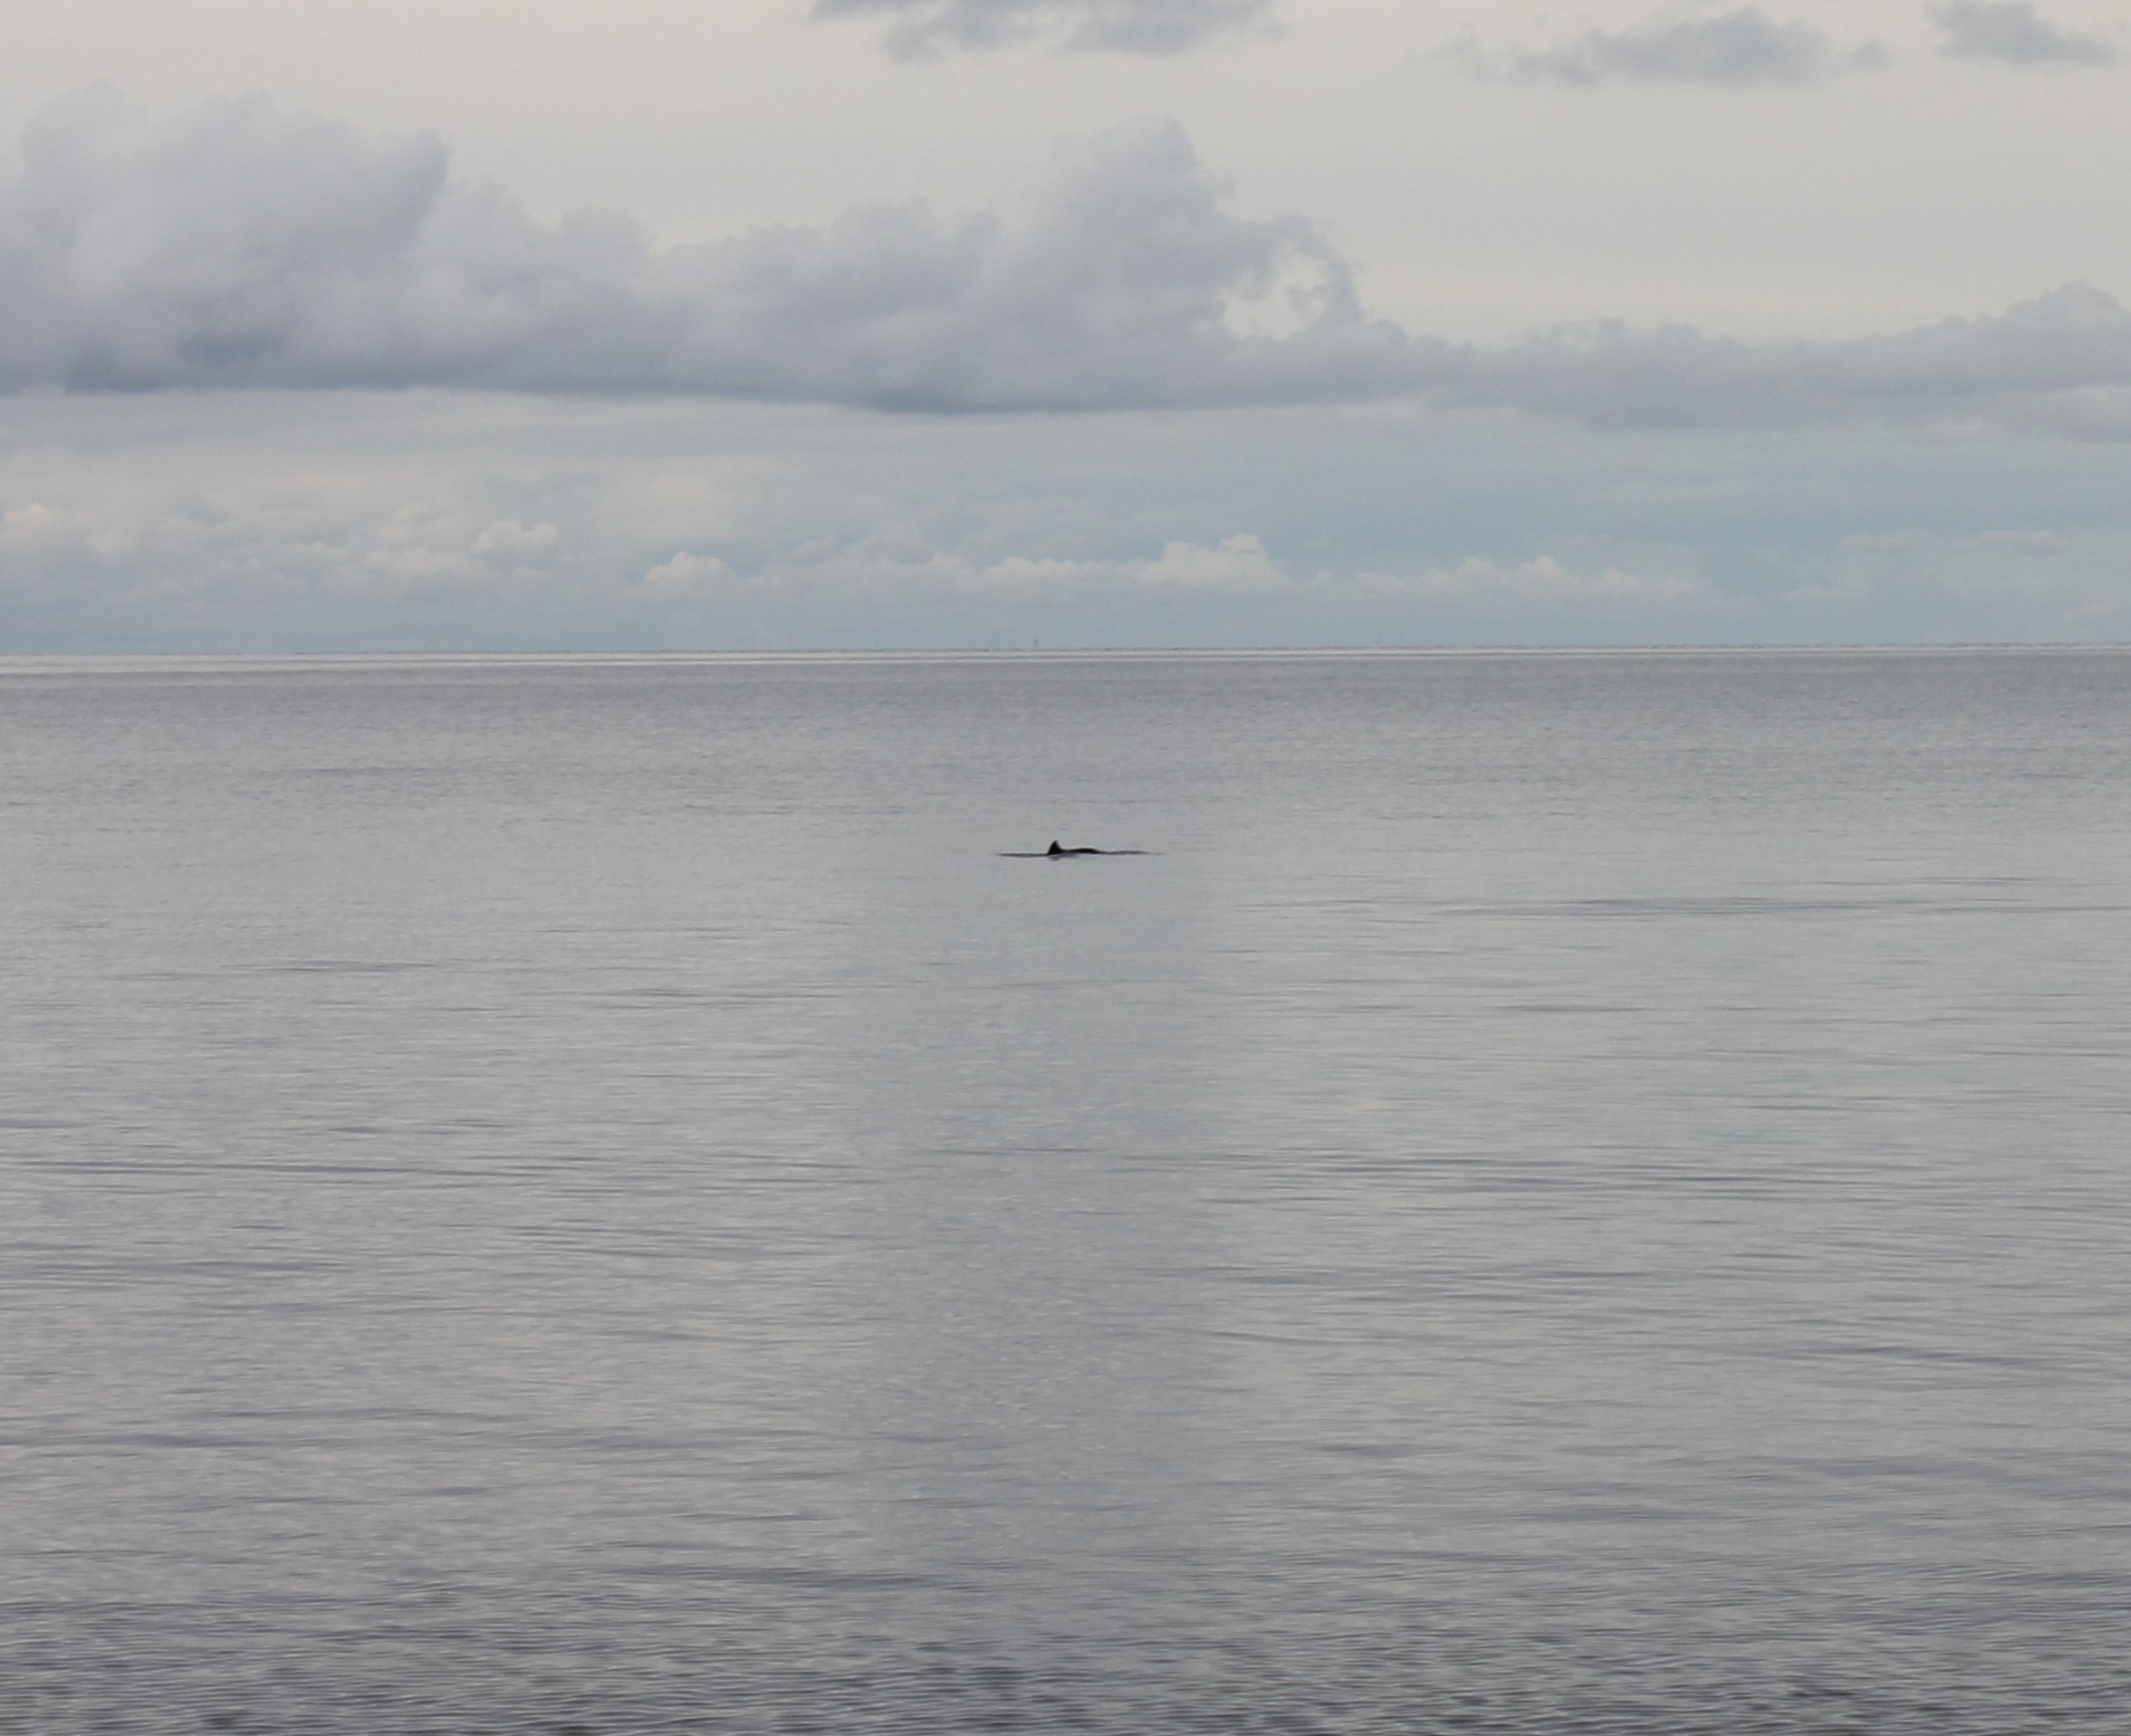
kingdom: Animalia
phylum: Chordata
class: Mammalia
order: Cetacea
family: Phocoenidae
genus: Phocoena
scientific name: Phocoena phocoena
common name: Marsvin
